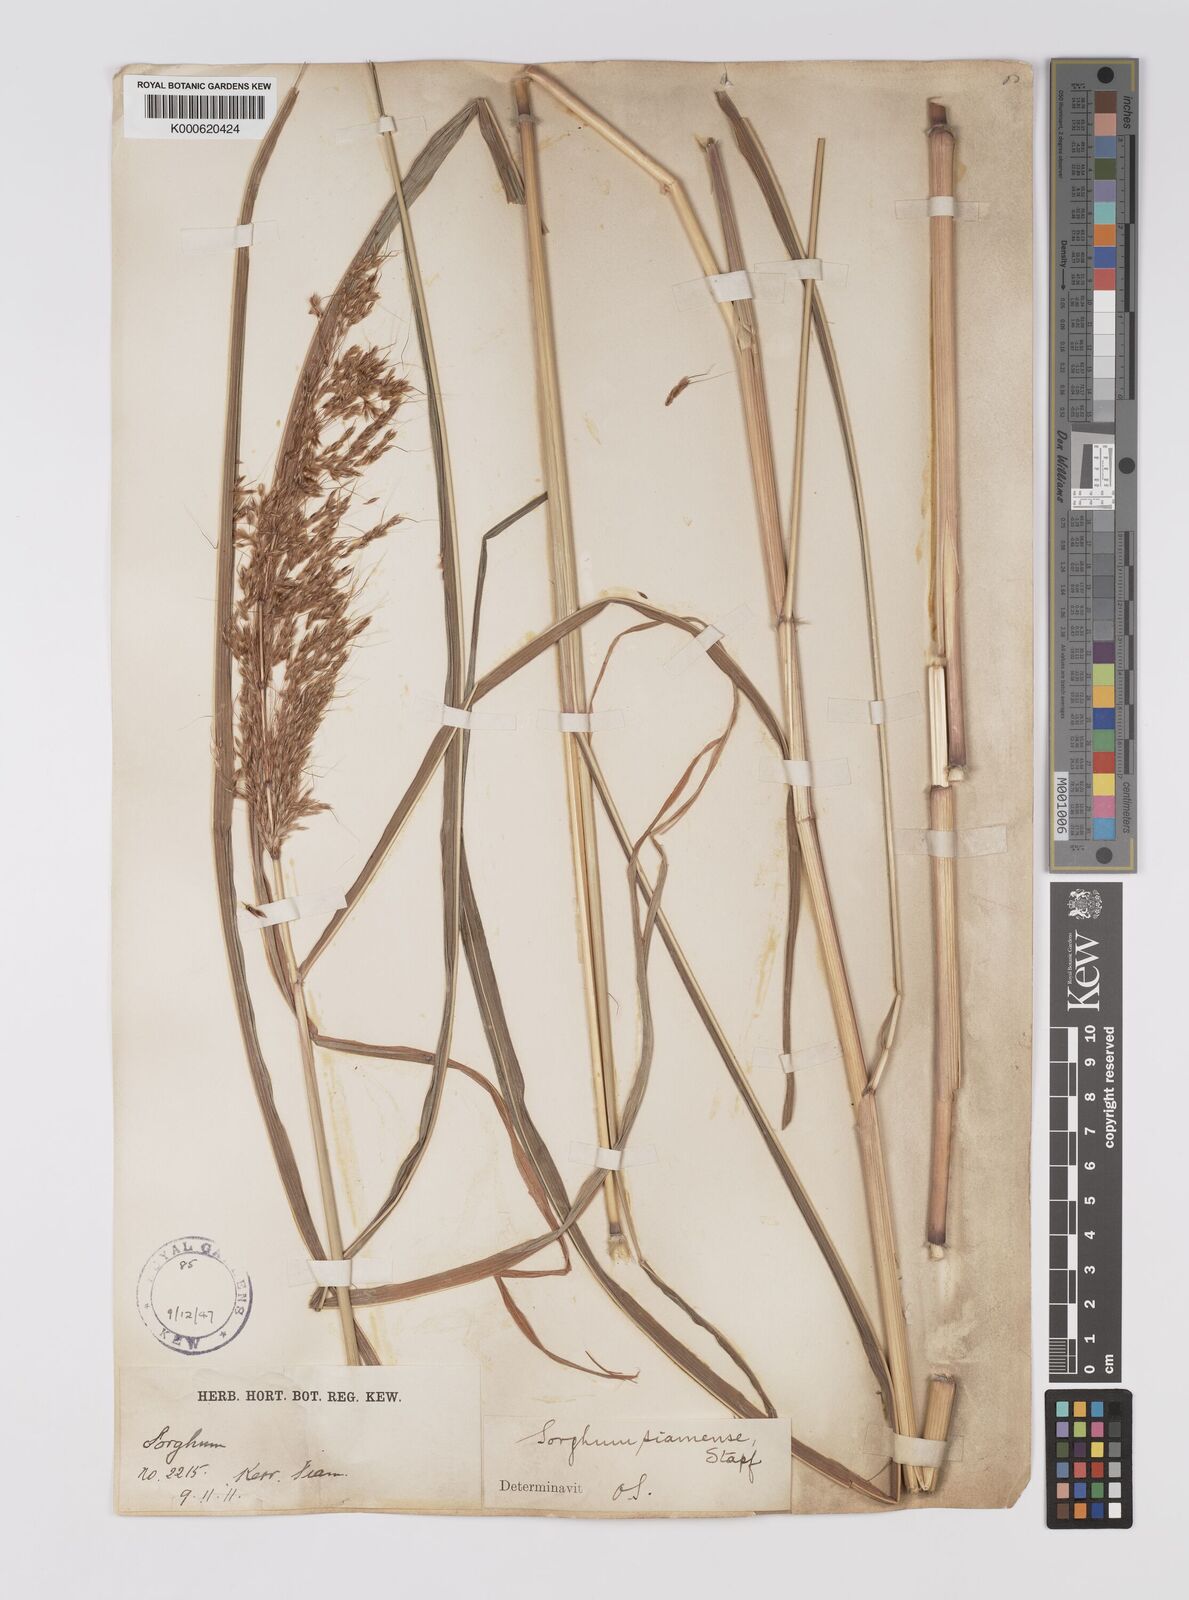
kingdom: Plantae
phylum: Tracheophyta
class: Liliopsida
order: Poales
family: Poaceae
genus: Sorghum
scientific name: Sorghum burmahicum
